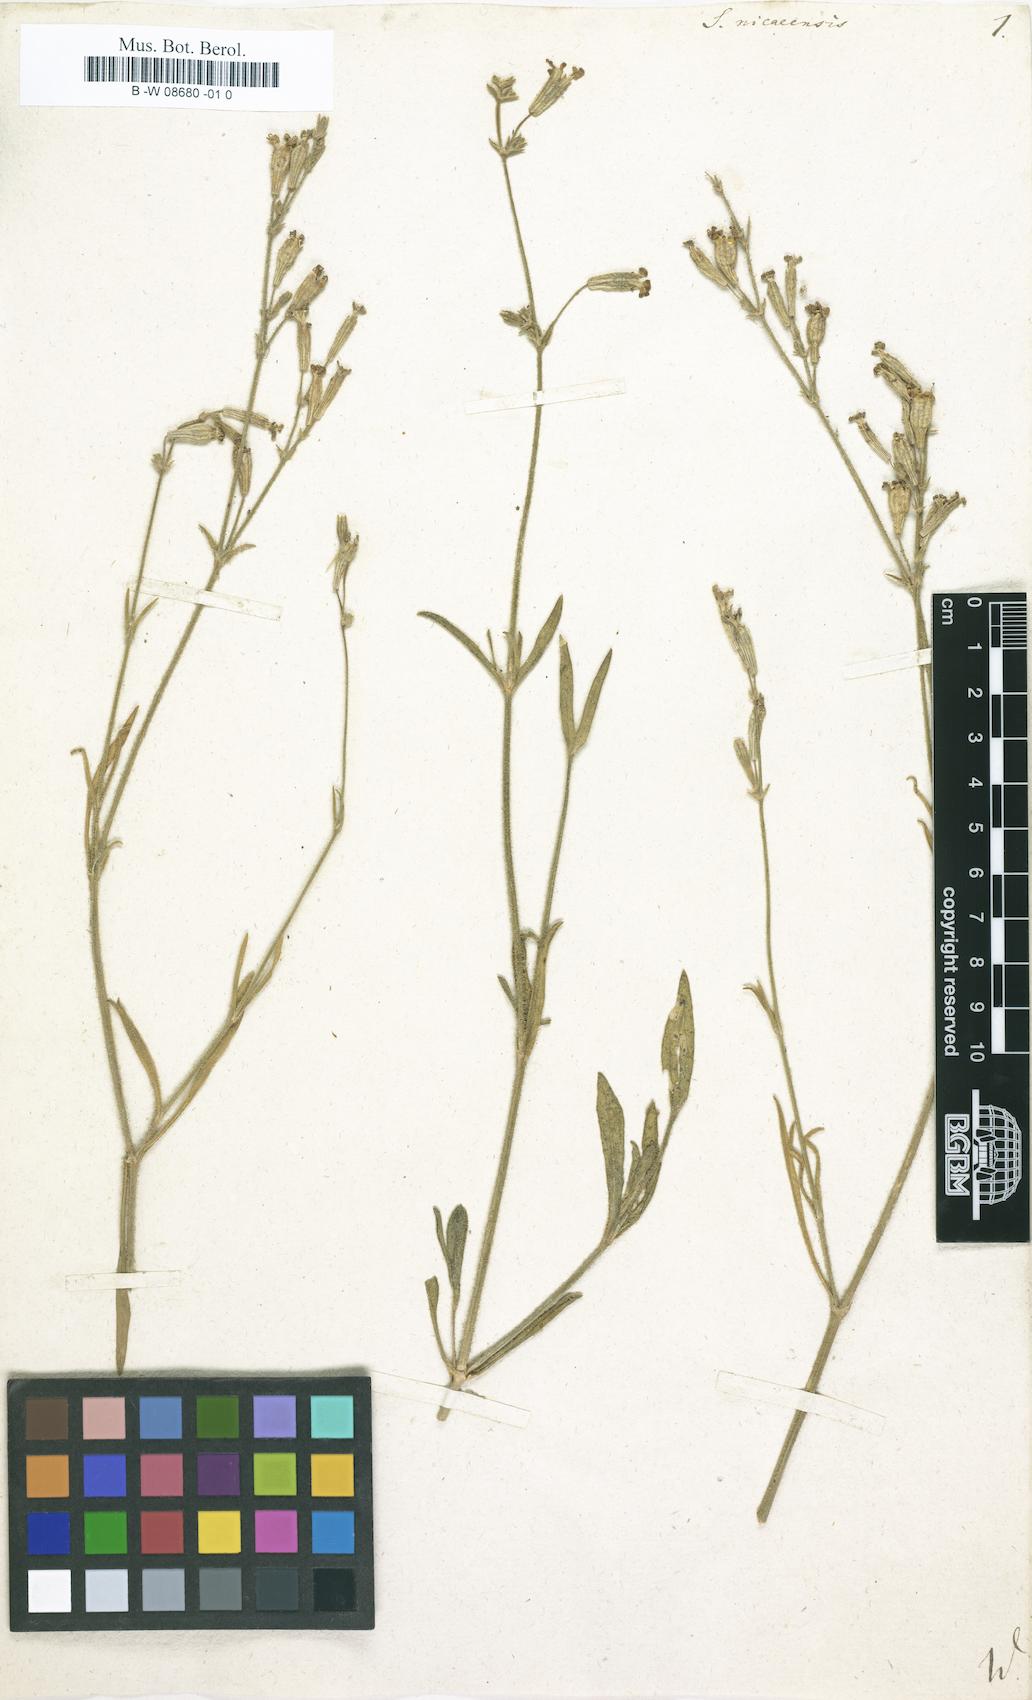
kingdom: Plantae
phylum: Tracheophyta
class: Magnoliopsida
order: Caryophyllales
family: Caryophyllaceae
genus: Silene
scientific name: Silene nicaeensis
